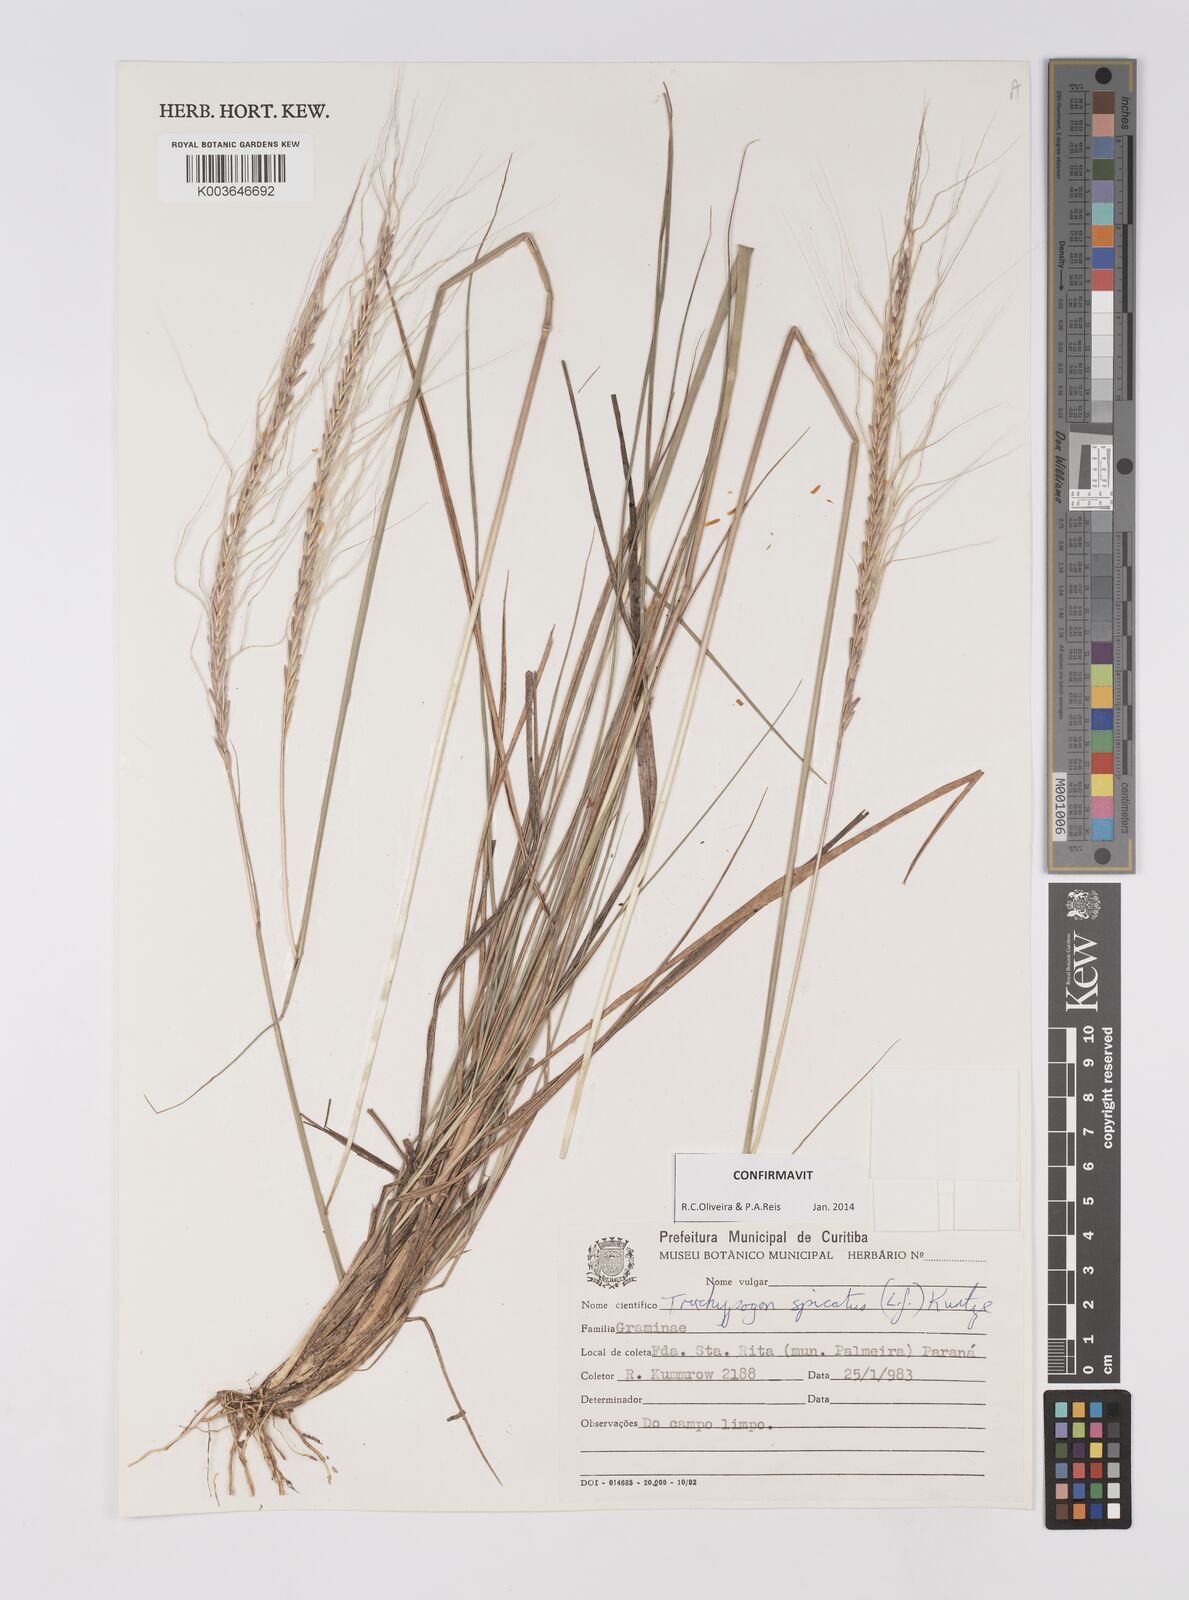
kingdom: Plantae
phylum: Tracheophyta
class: Liliopsida
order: Poales
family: Poaceae
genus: Trachypogon
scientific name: Trachypogon spicatus
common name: Crinkle-awn
